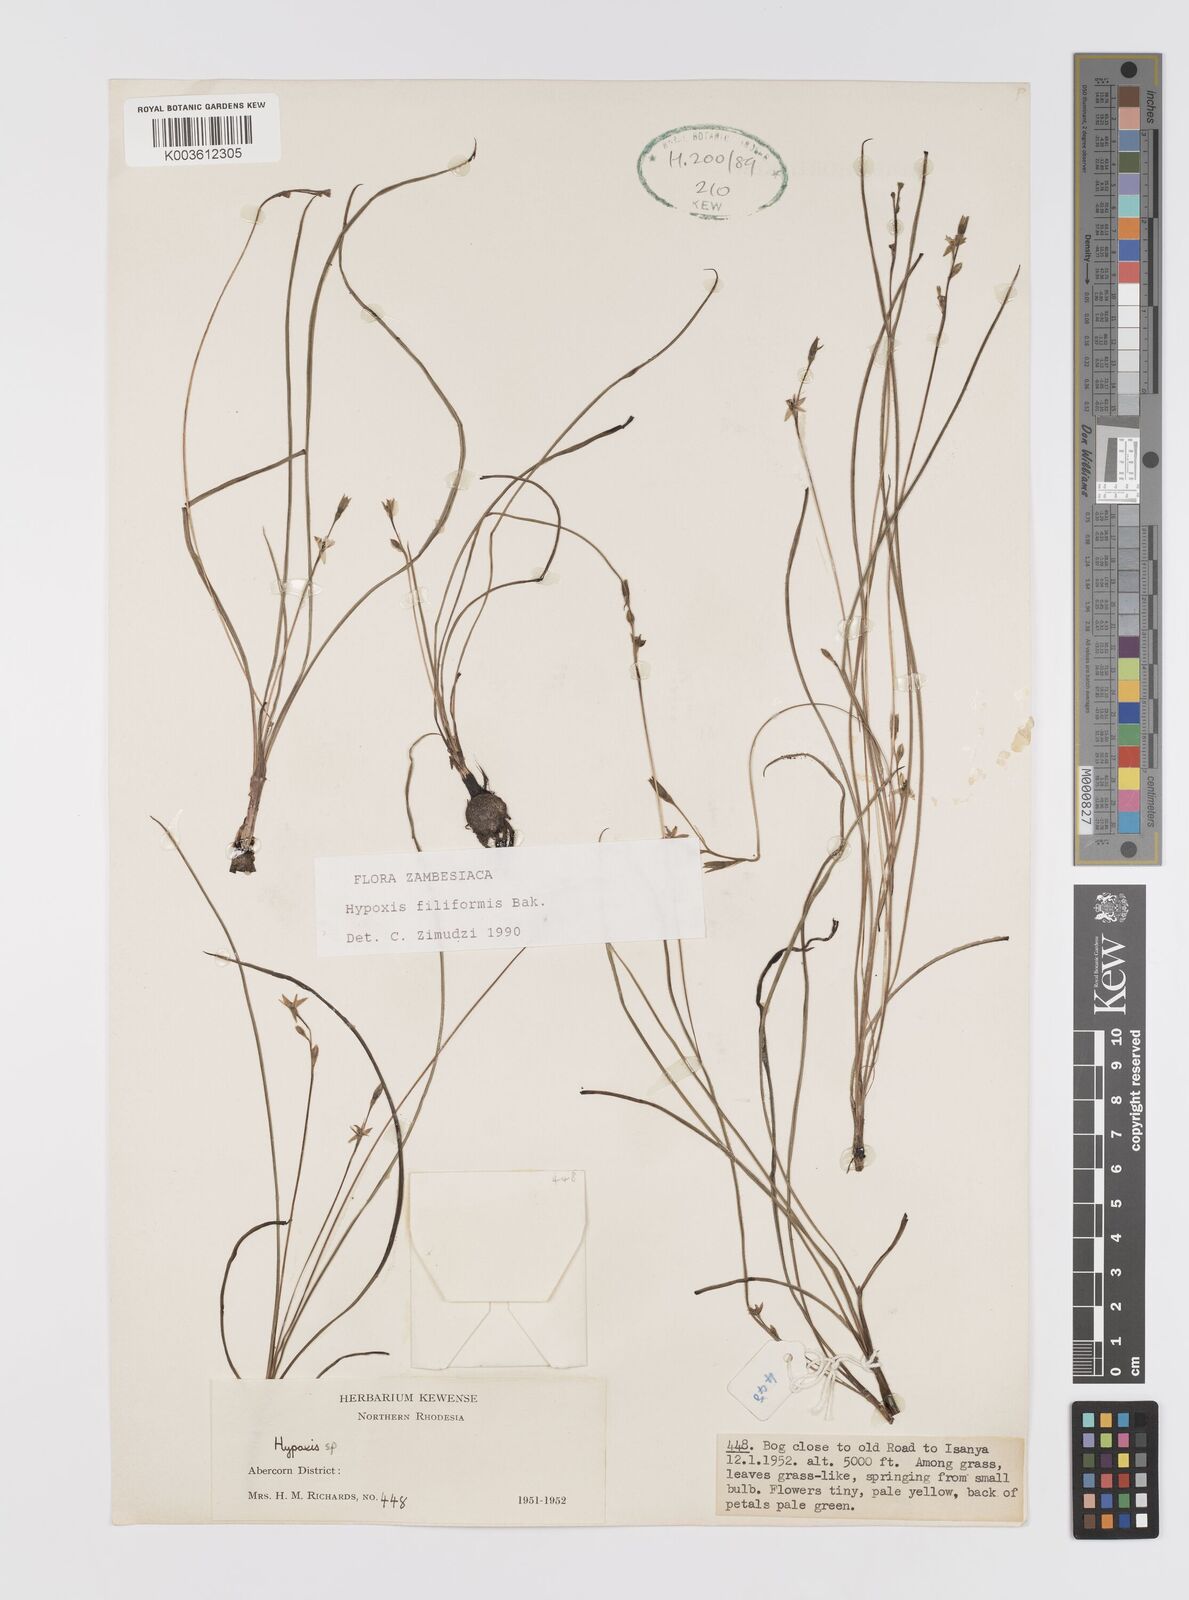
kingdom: Plantae
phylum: Tracheophyta
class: Liliopsida
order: Asparagales
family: Hypoxidaceae
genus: Hypoxis
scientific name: Hypoxis filiformis
